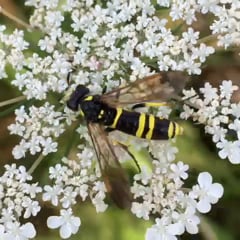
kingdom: Animalia
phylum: Arthropoda
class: Insecta
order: Hymenoptera
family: Tenthredinidae
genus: Tenthredo
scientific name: Tenthredo marginella
